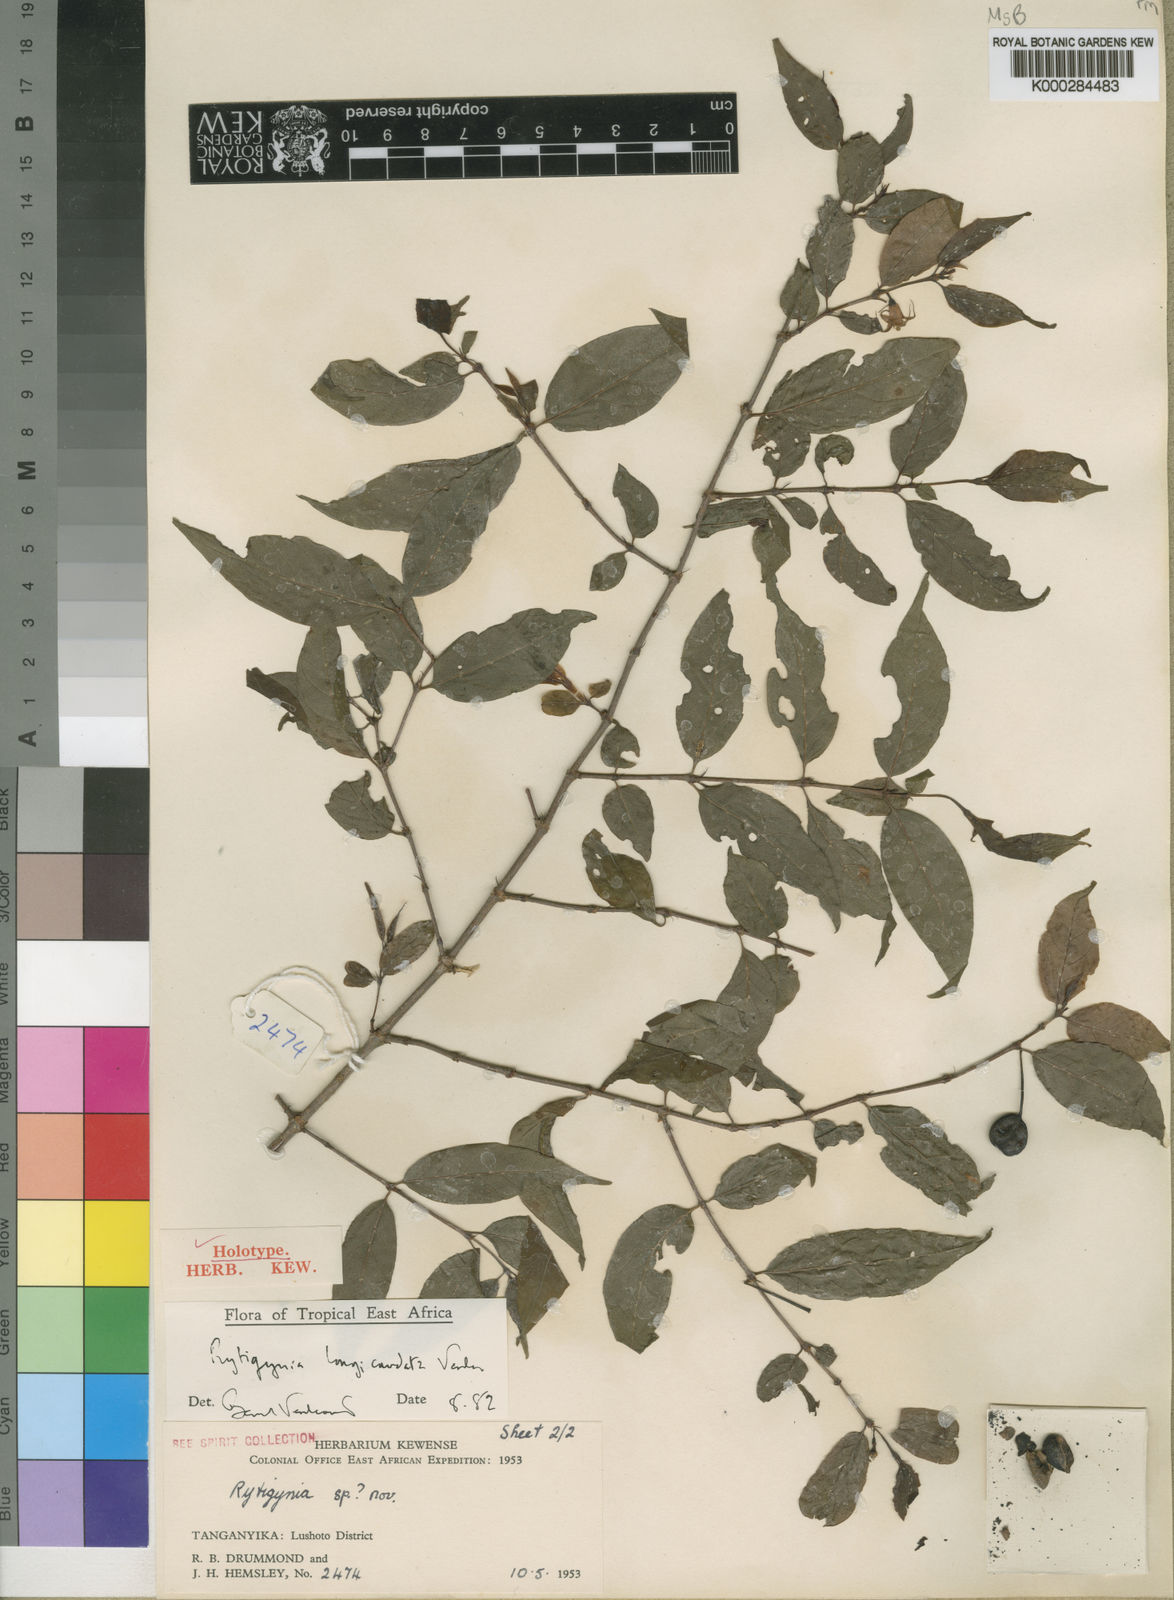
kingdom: Plantae
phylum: Tracheophyta
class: Magnoliopsida
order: Gentianales
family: Rubiaceae
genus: Rytigynia
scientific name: Rytigynia longicaudata
